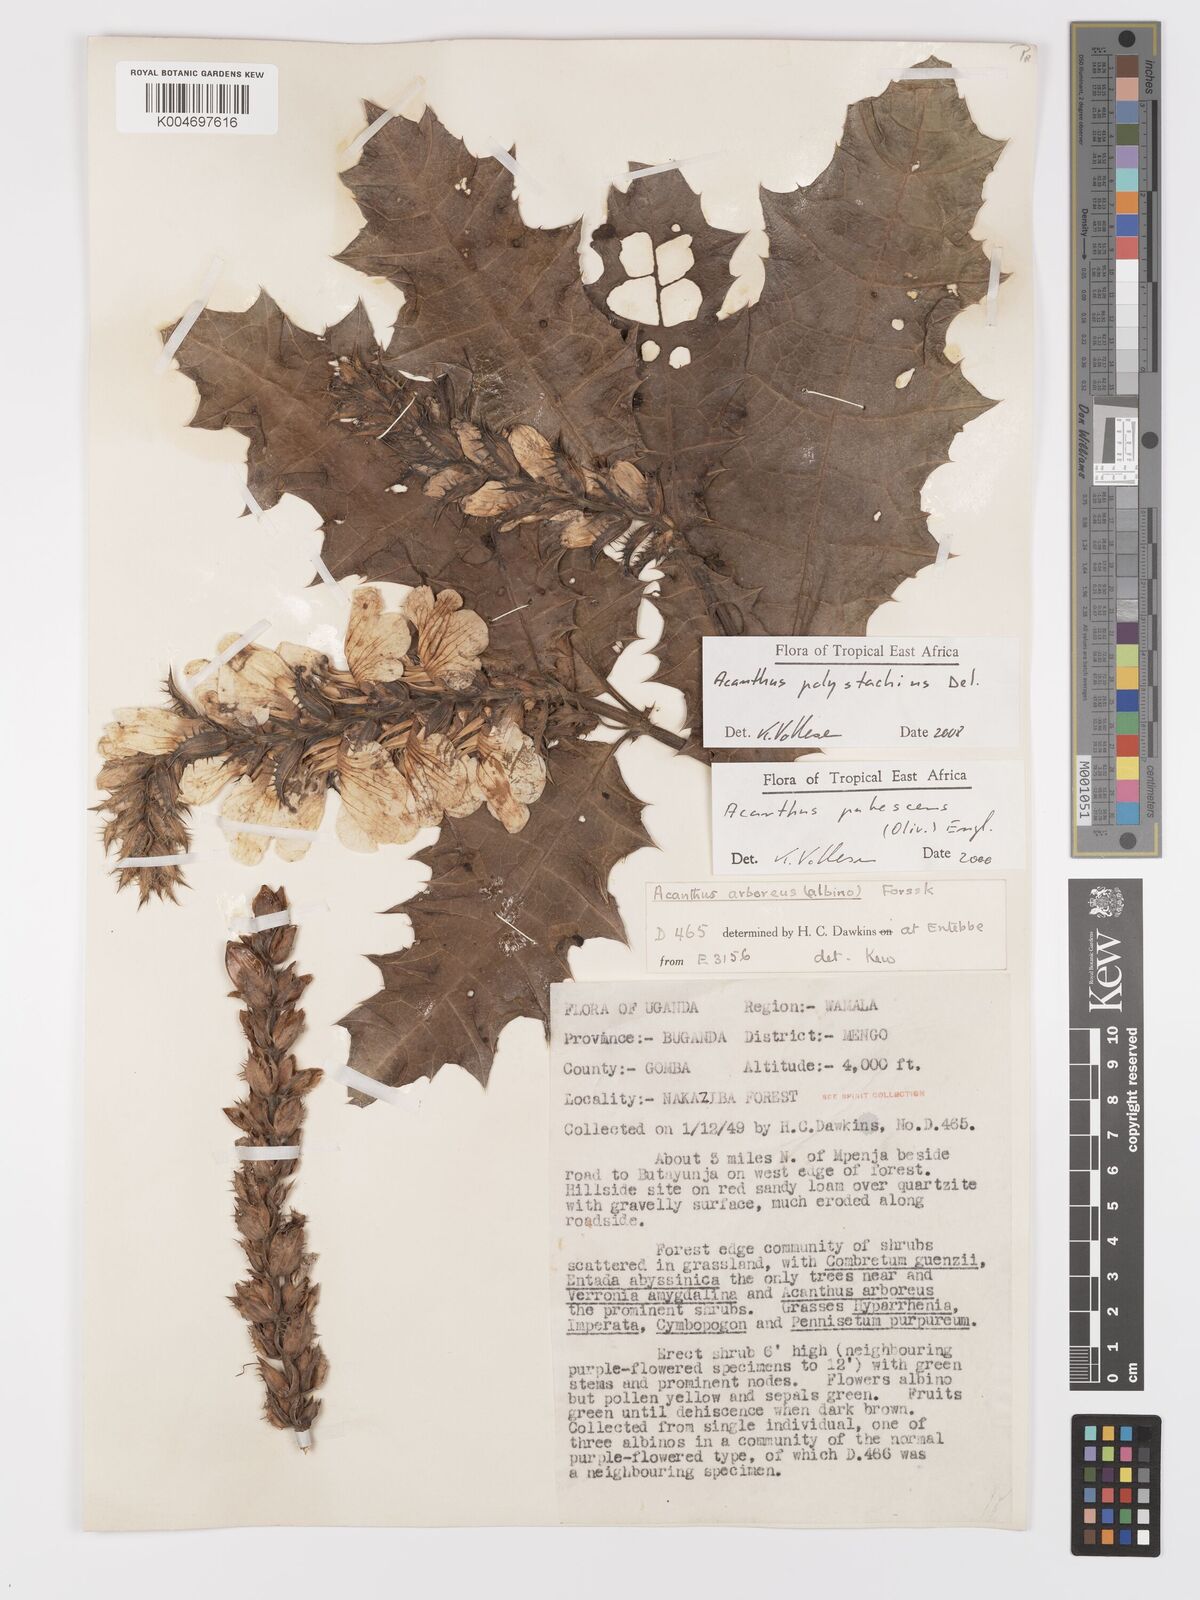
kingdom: Plantae
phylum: Tracheophyta
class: Magnoliopsida
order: Lamiales
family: Acanthaceae
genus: Acanthus
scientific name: Acanthus polystachyus
